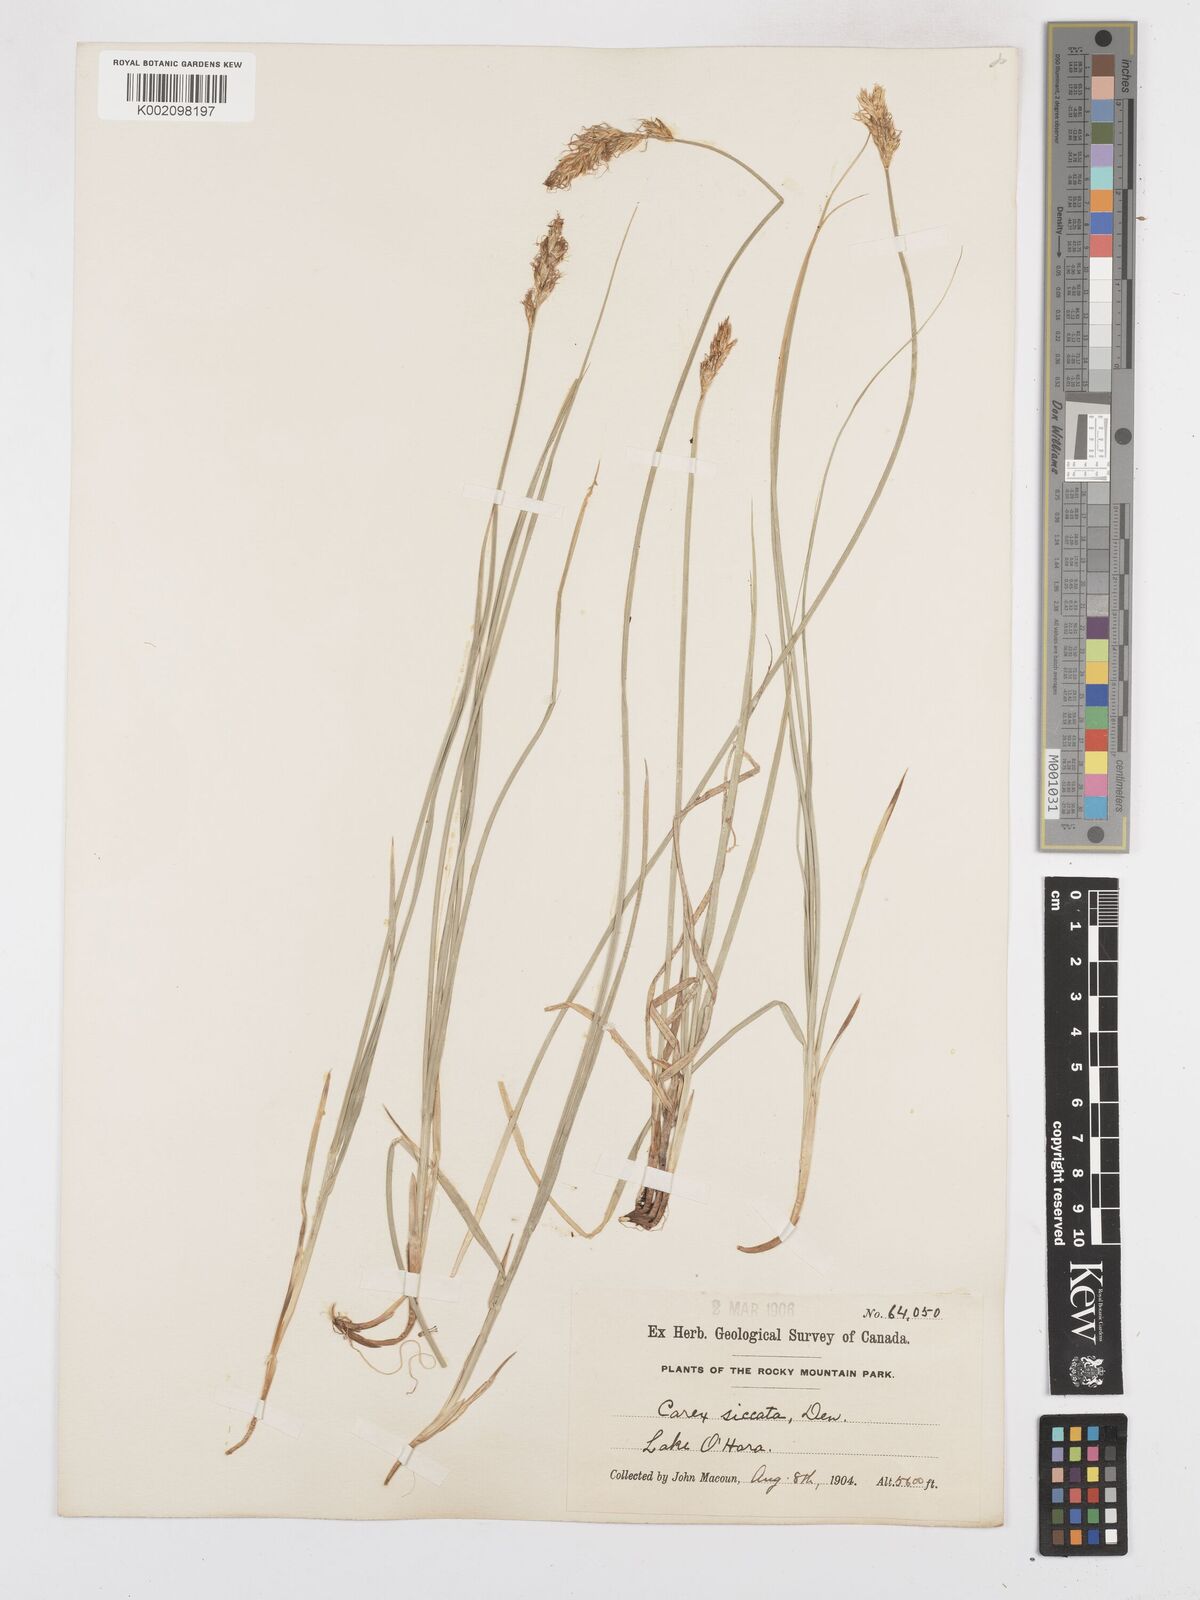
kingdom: Plantae
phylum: Tracheophyta
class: Liliopsida
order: Poales
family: Cyperaceae
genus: Carex
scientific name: Carex foenea
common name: Bronze sedge
